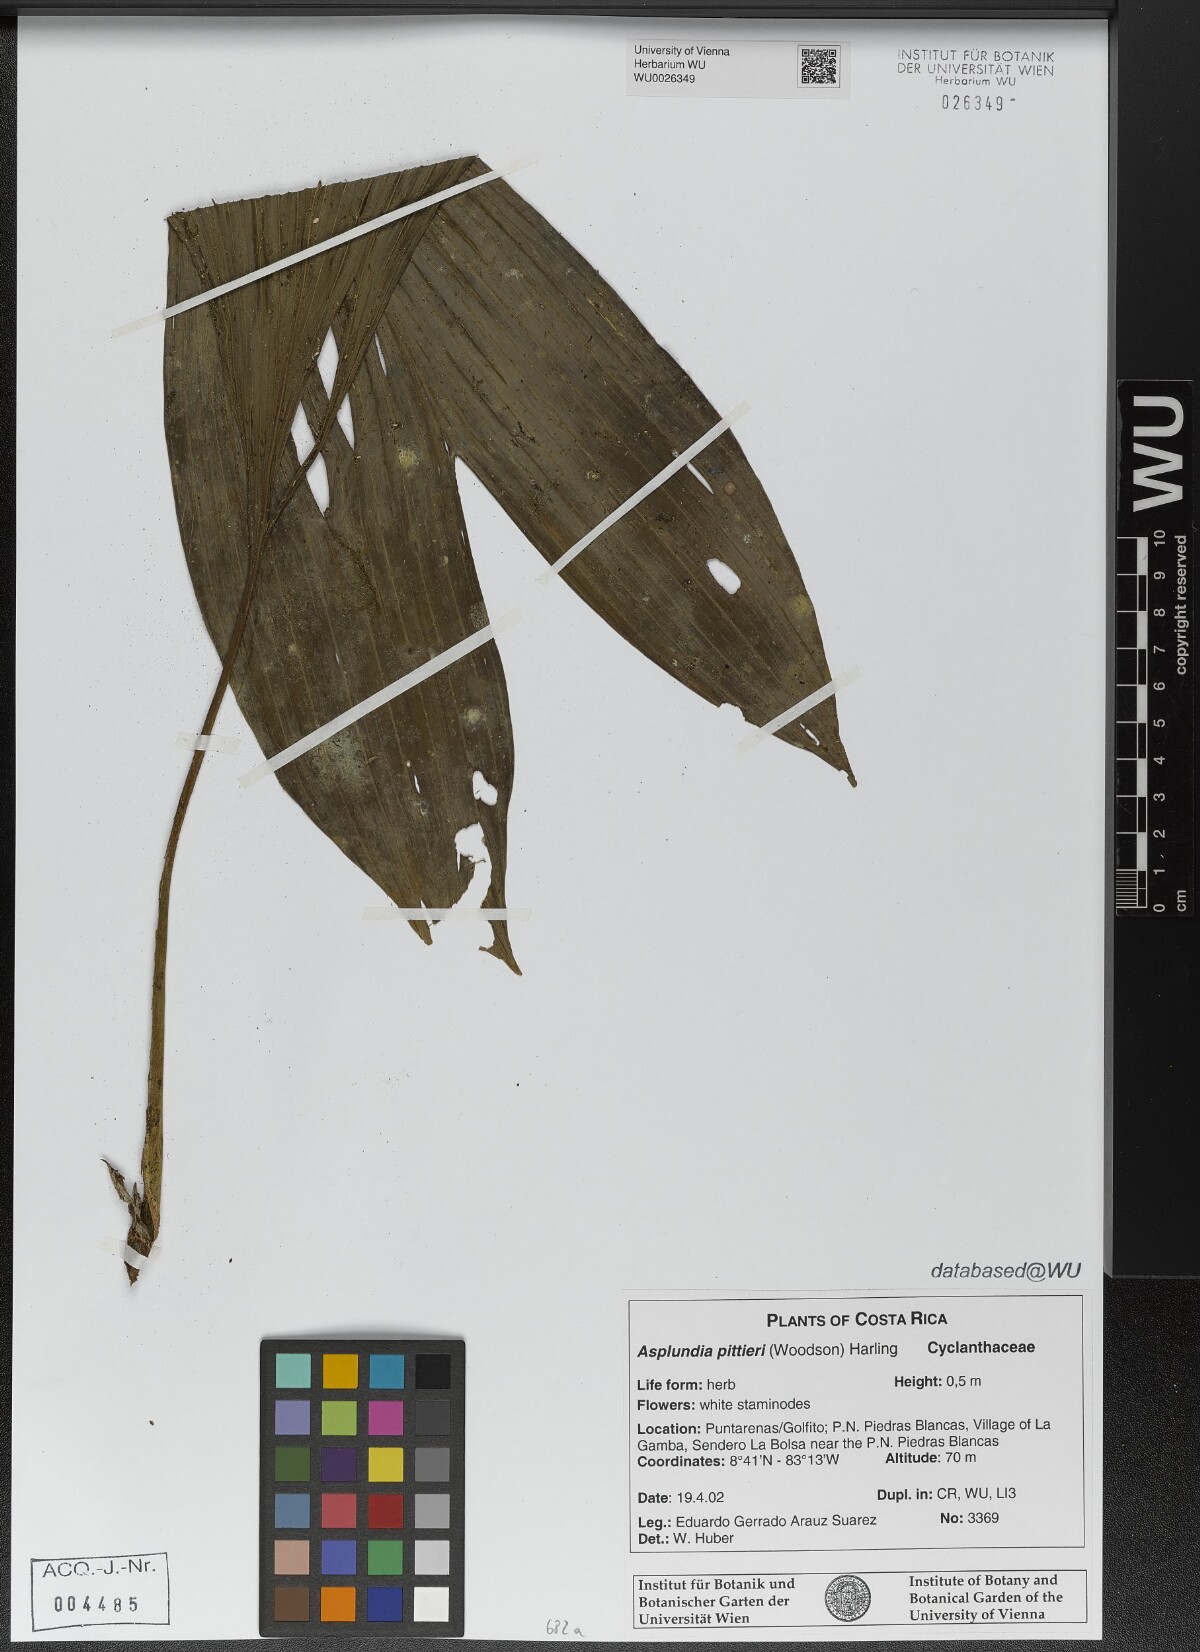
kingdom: Plantae
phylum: Tracheophyta
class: Liliopsida
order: Pandanales
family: Cyclanthaceae
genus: Asplundia
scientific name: Asplundia pittieri
